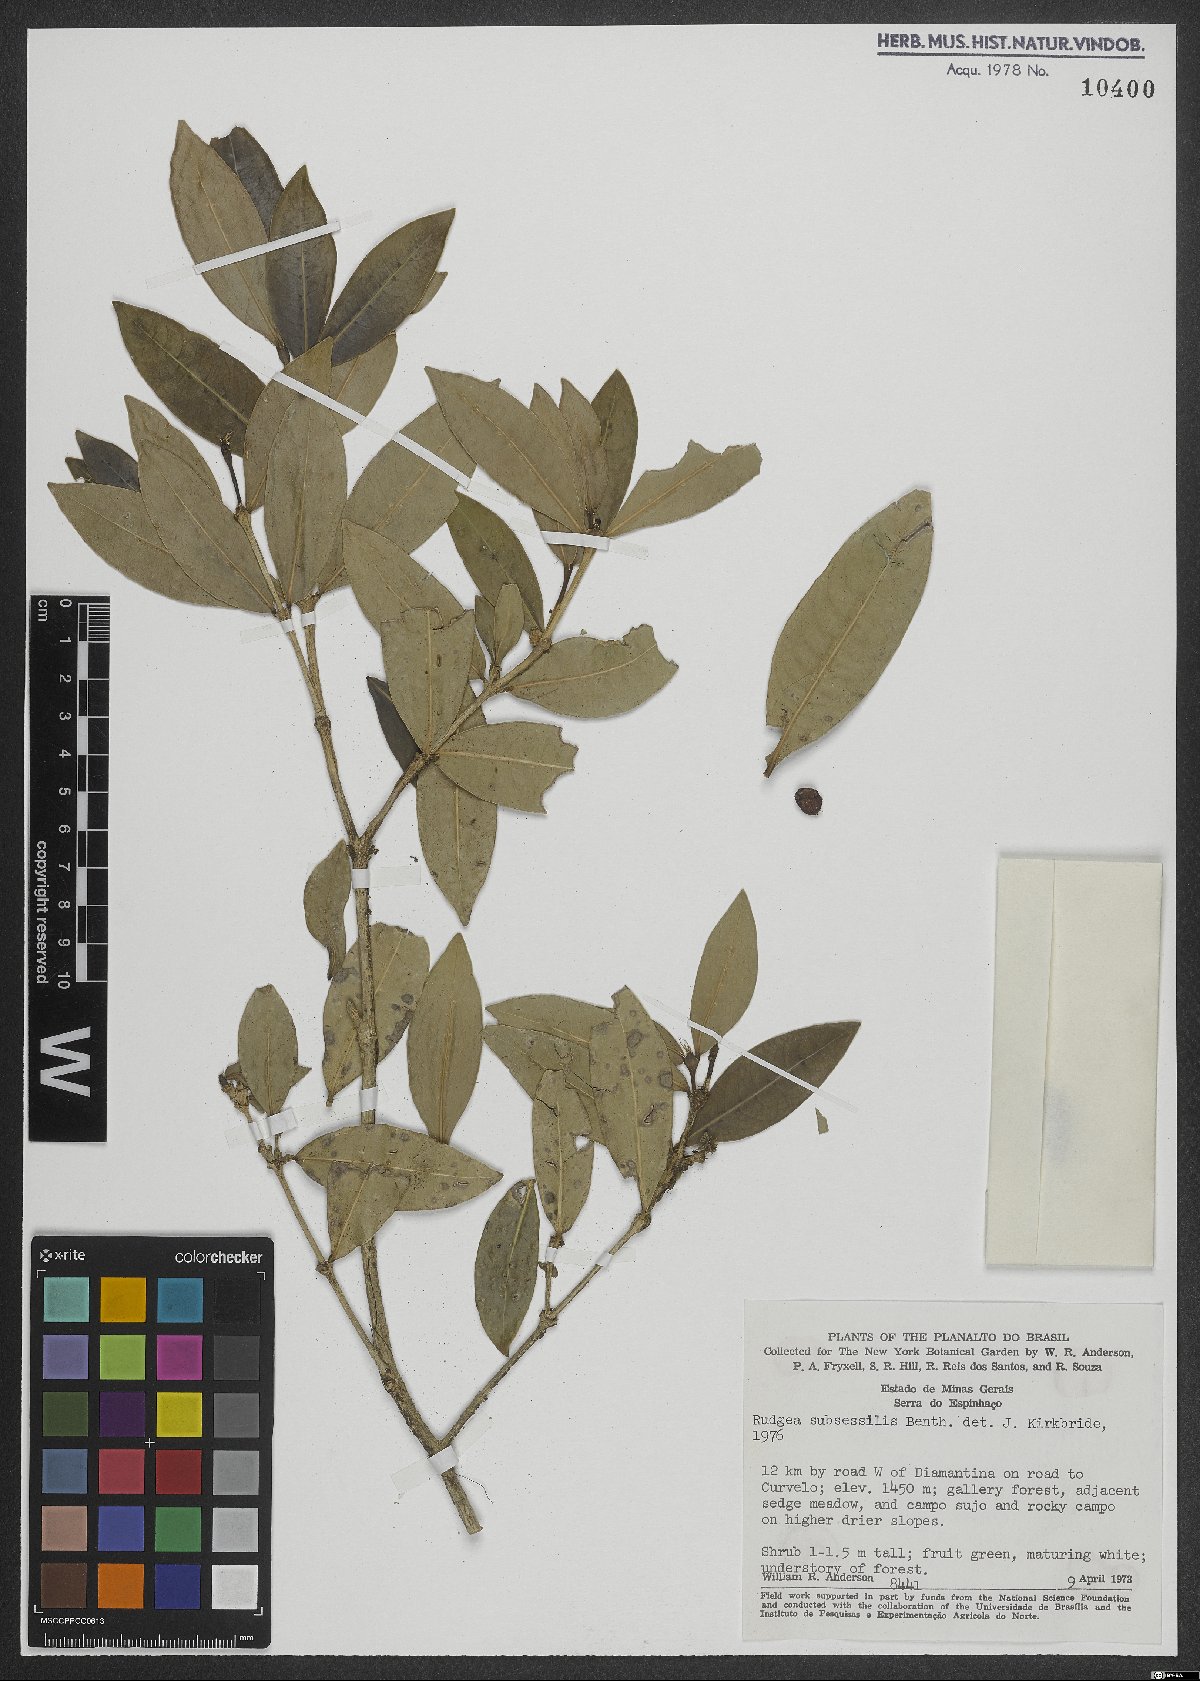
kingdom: Plantae
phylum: Tracheophyta
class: Magnoliopsida
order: Gentianales
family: Rubiaceae
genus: Rudgea
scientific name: Rudgea sessilis
